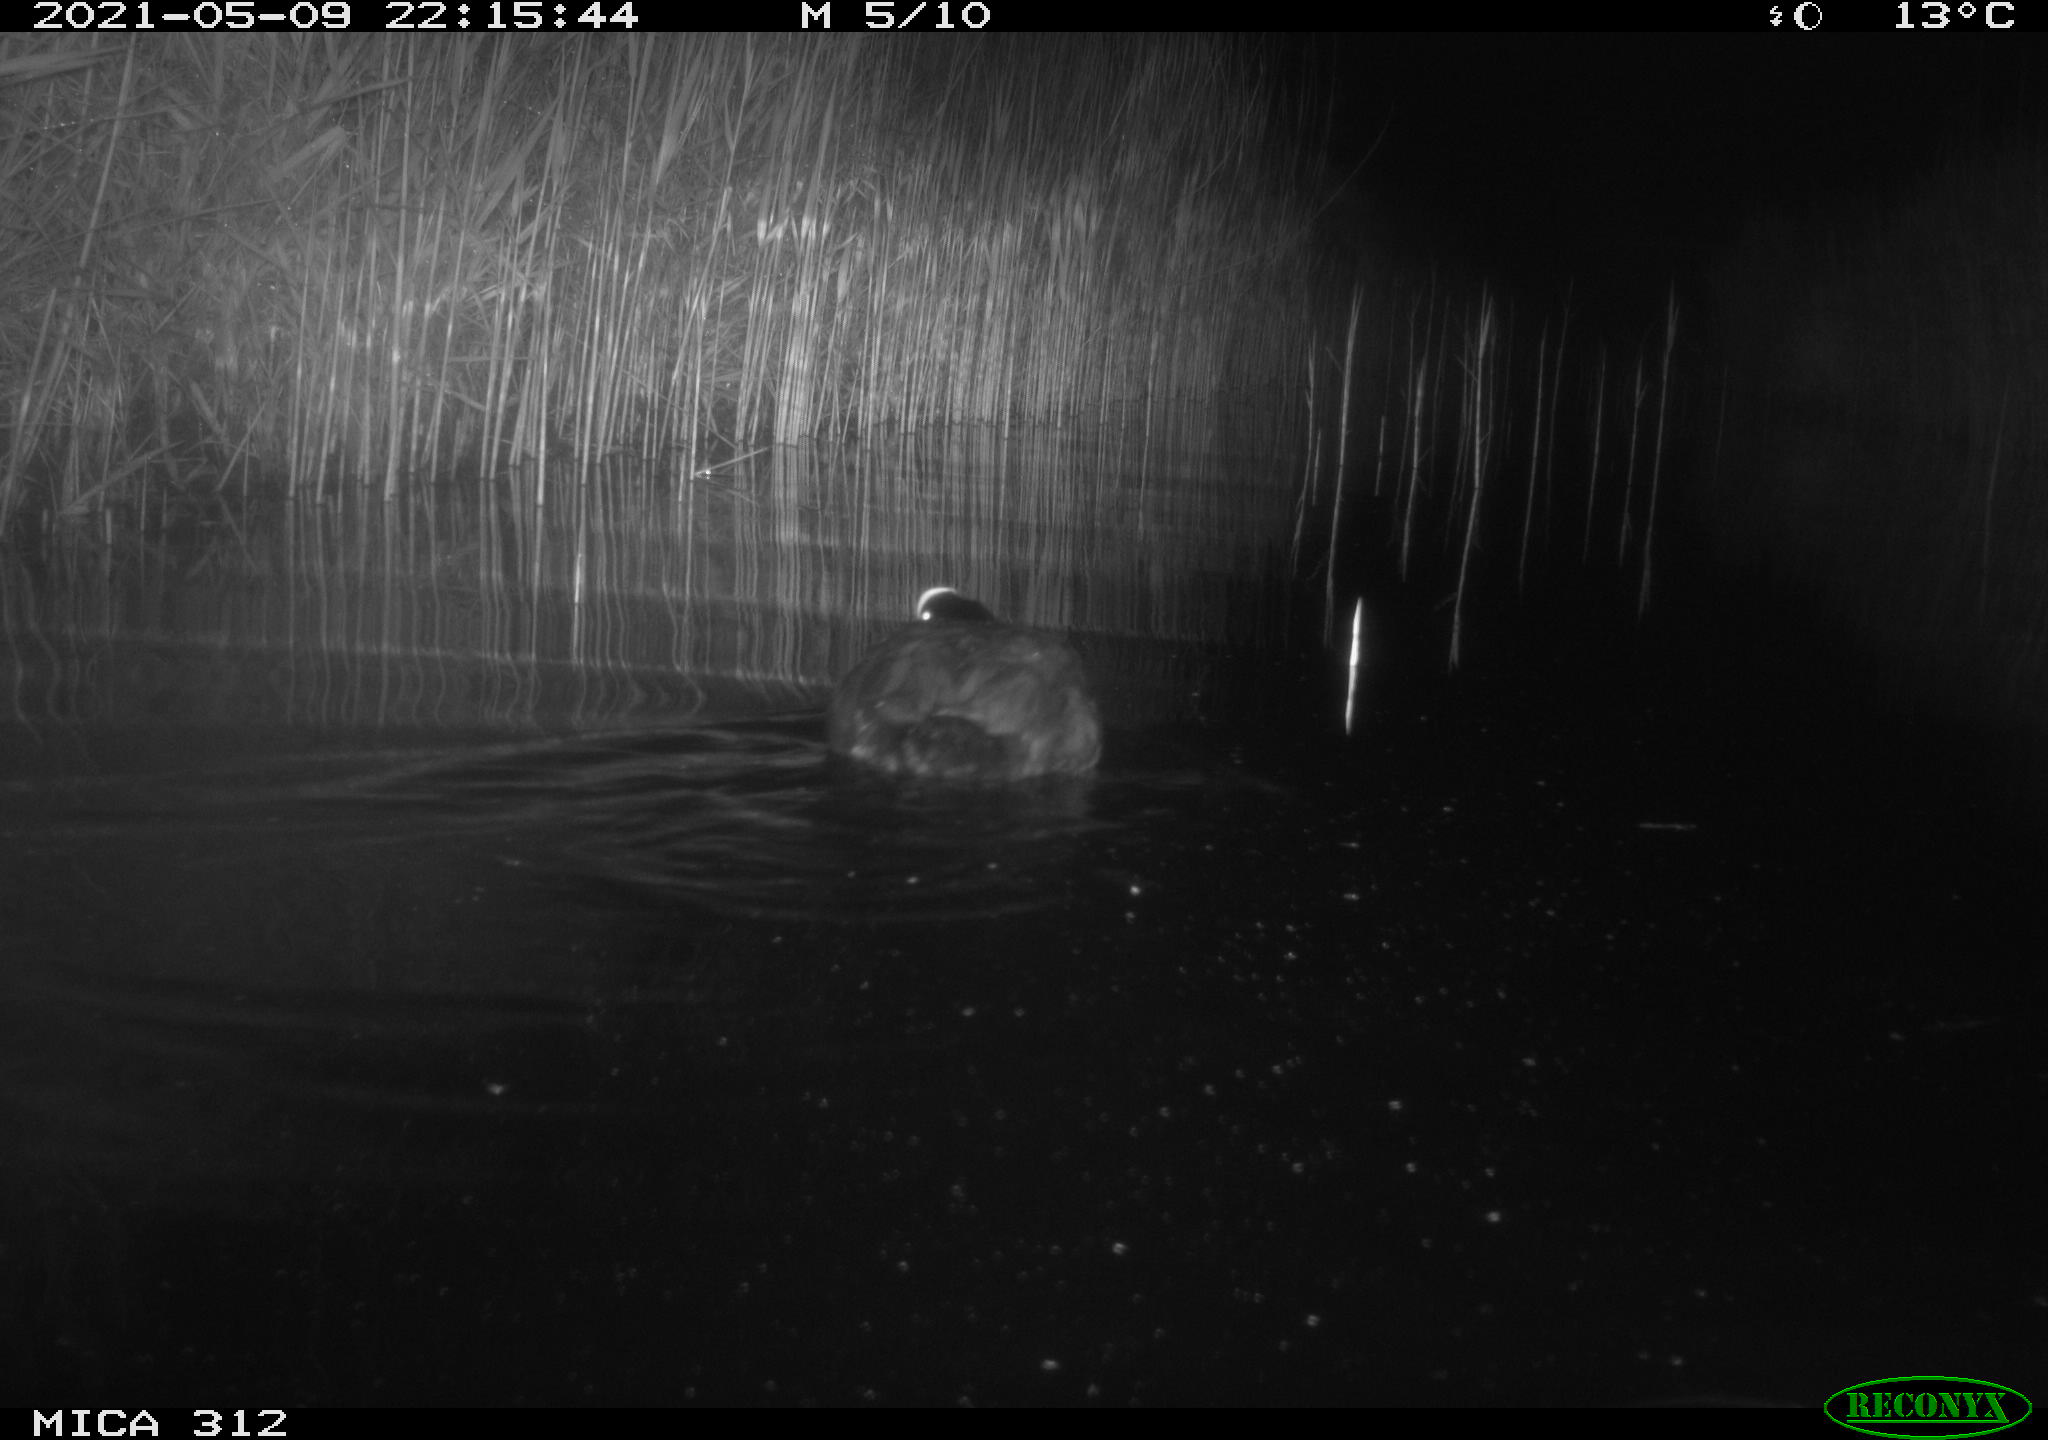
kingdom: Animalia
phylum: Chordata
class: Aves
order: Gruiformes
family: Rallidae
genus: Fulica
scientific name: Fulica atra
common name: Eurasian coot
